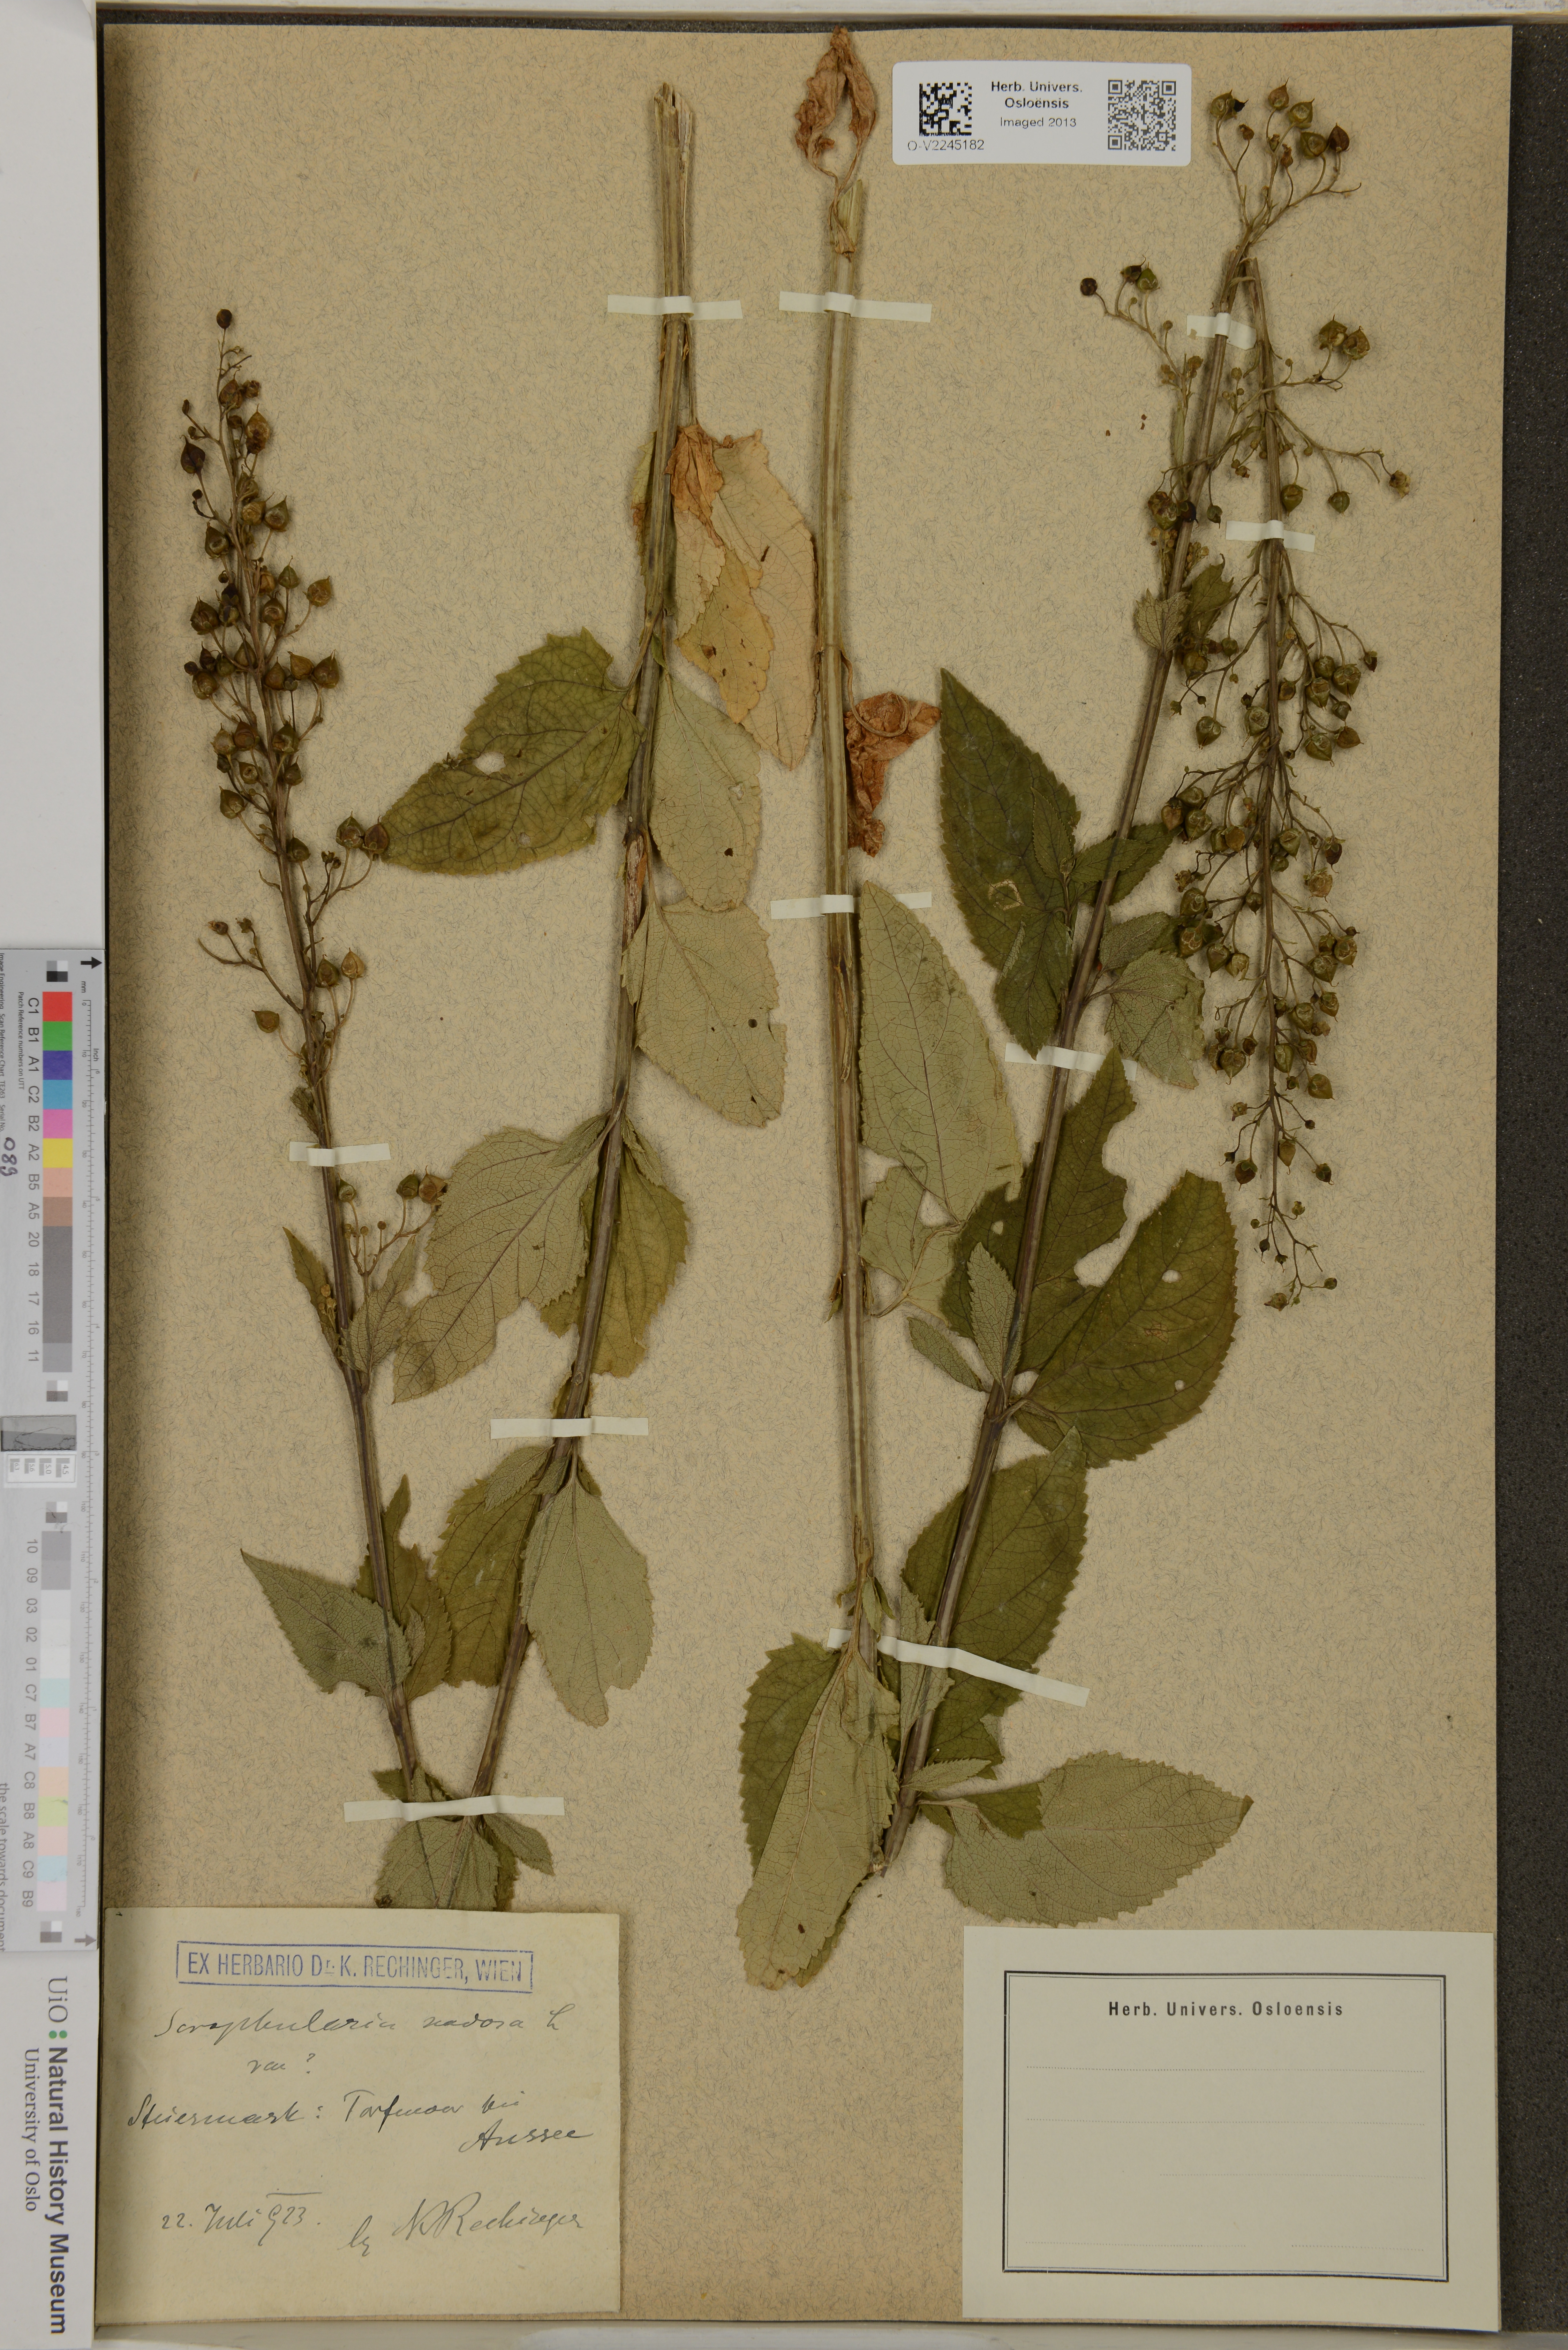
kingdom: Plantae
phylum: Tracheophyta
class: Magnoliopsida
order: Lamiales
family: Scrophulariaceae
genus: Scrophularia
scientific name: Scrophularia nodosa
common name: Common figwort
